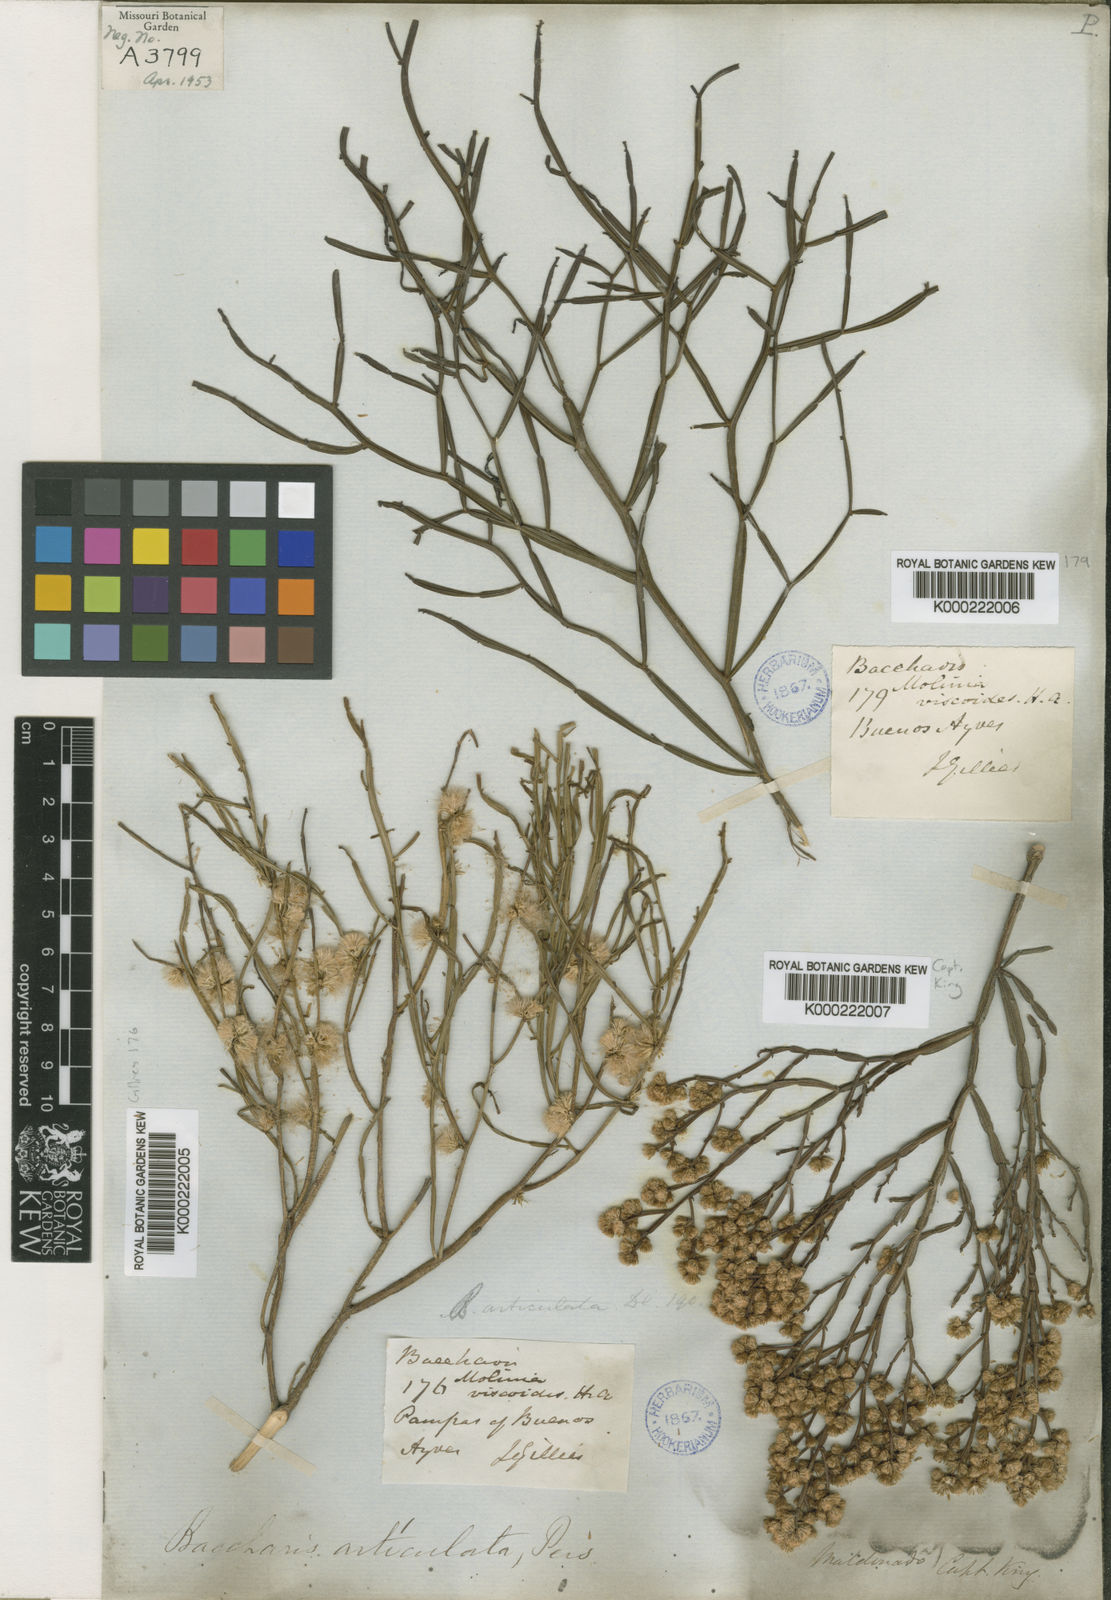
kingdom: Plantae
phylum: Tracheophyta
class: Magnoliopsida
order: Asterales
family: Asteraceae
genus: Baccharis
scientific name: Baccharis articulata
